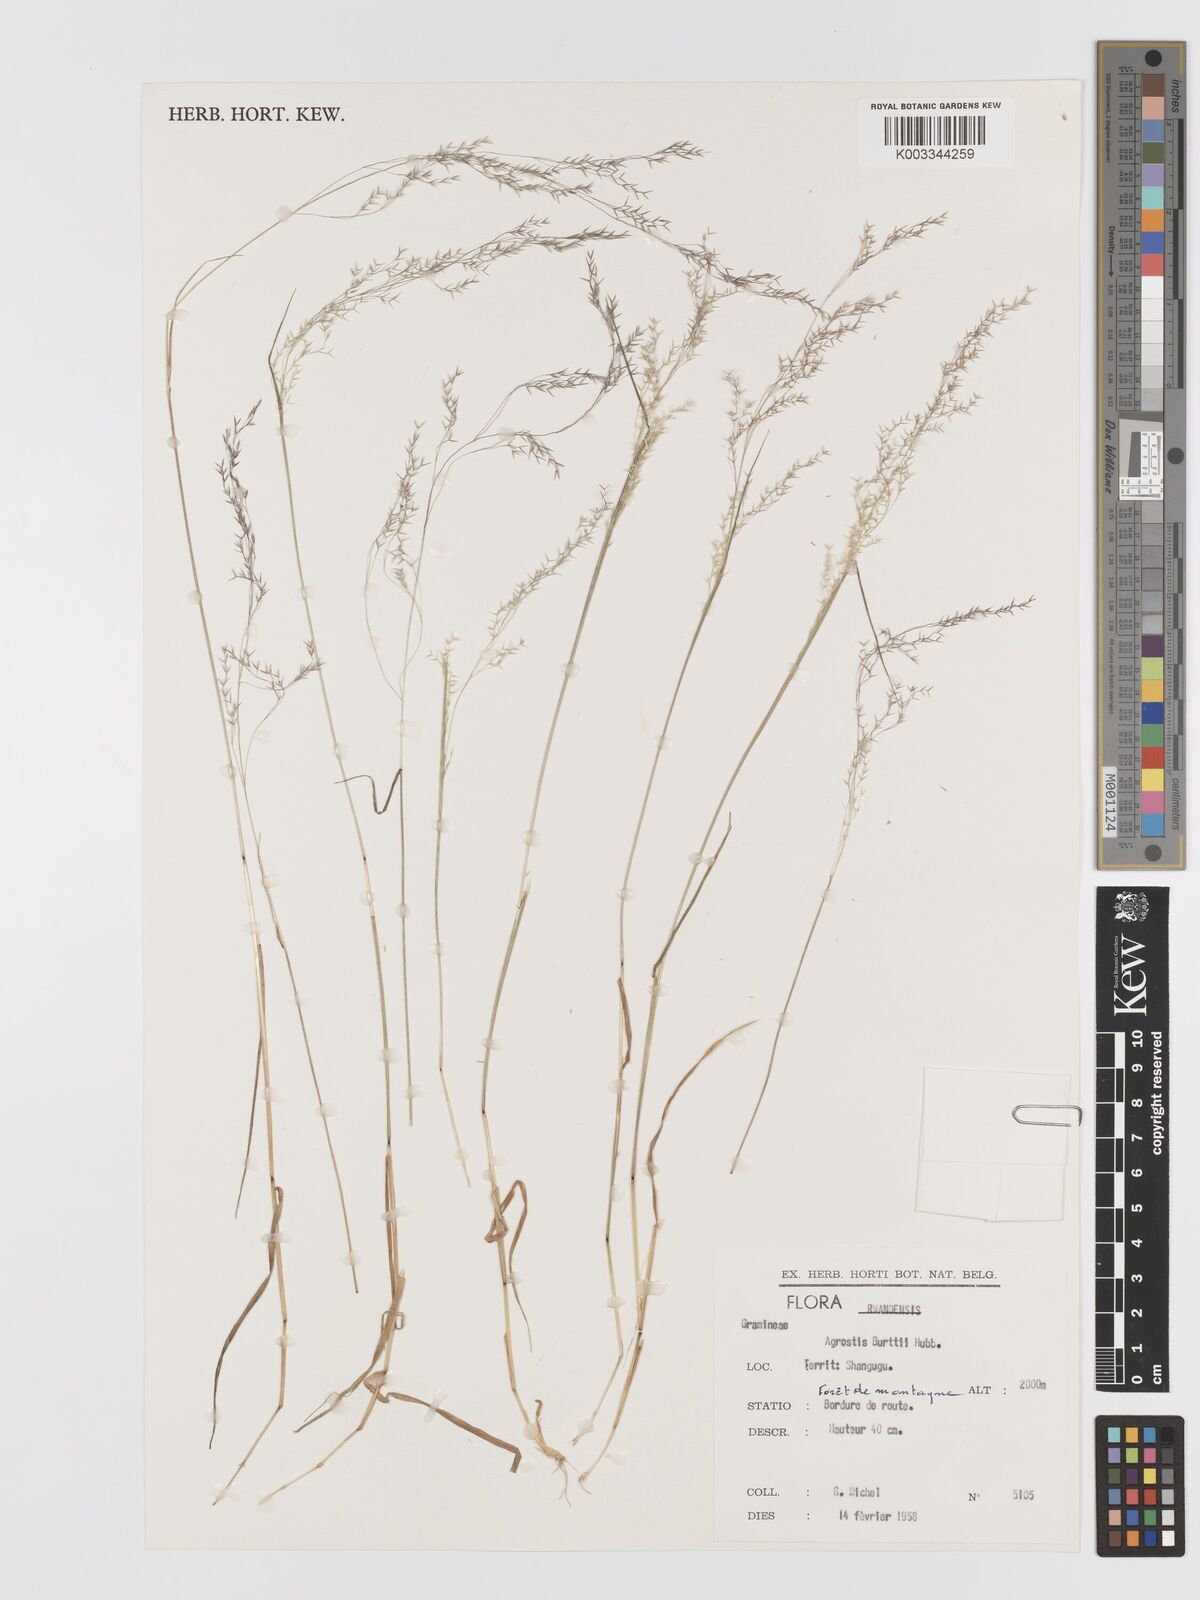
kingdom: Plantae
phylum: Tracheophyta
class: Liliopsida
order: Poales
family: Poaceae
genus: Agrostis
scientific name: Agrostis kilimandscharica
